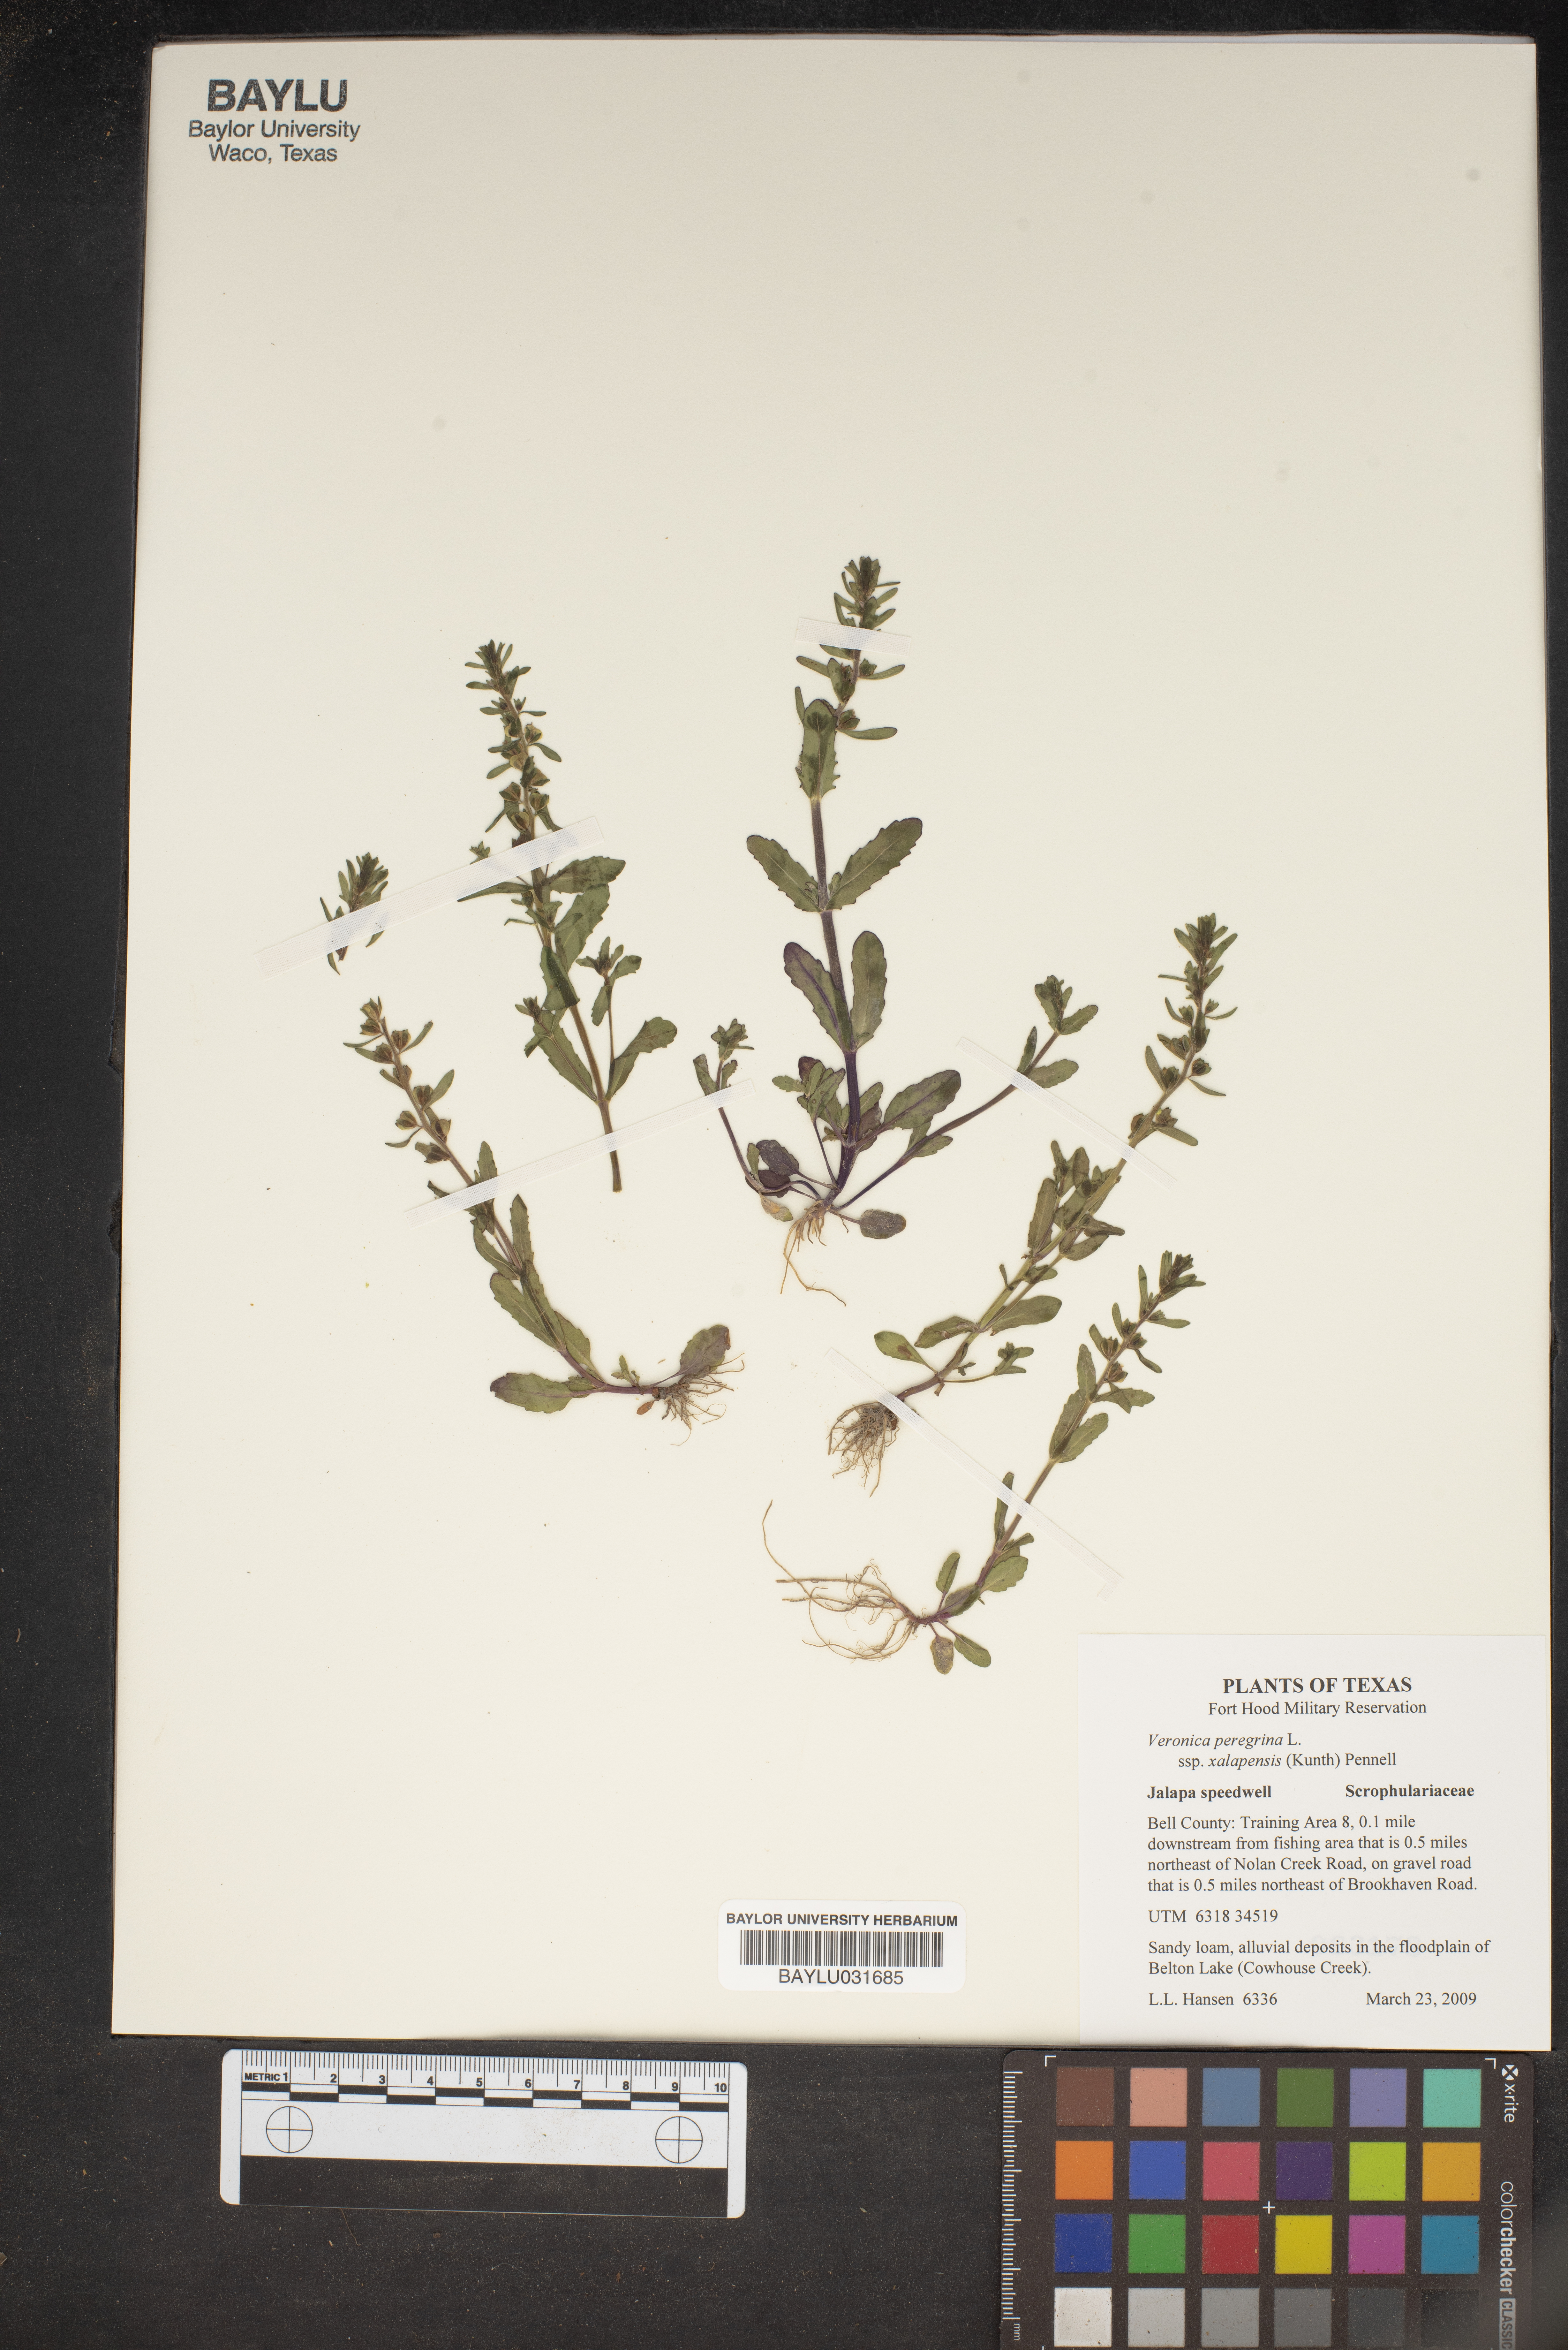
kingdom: Plantae
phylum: Tracheophyta
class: Magnoliopsida
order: Lamiales
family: Plantaginaceae
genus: Veronica
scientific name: Veronica peregrina
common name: Neckweed
